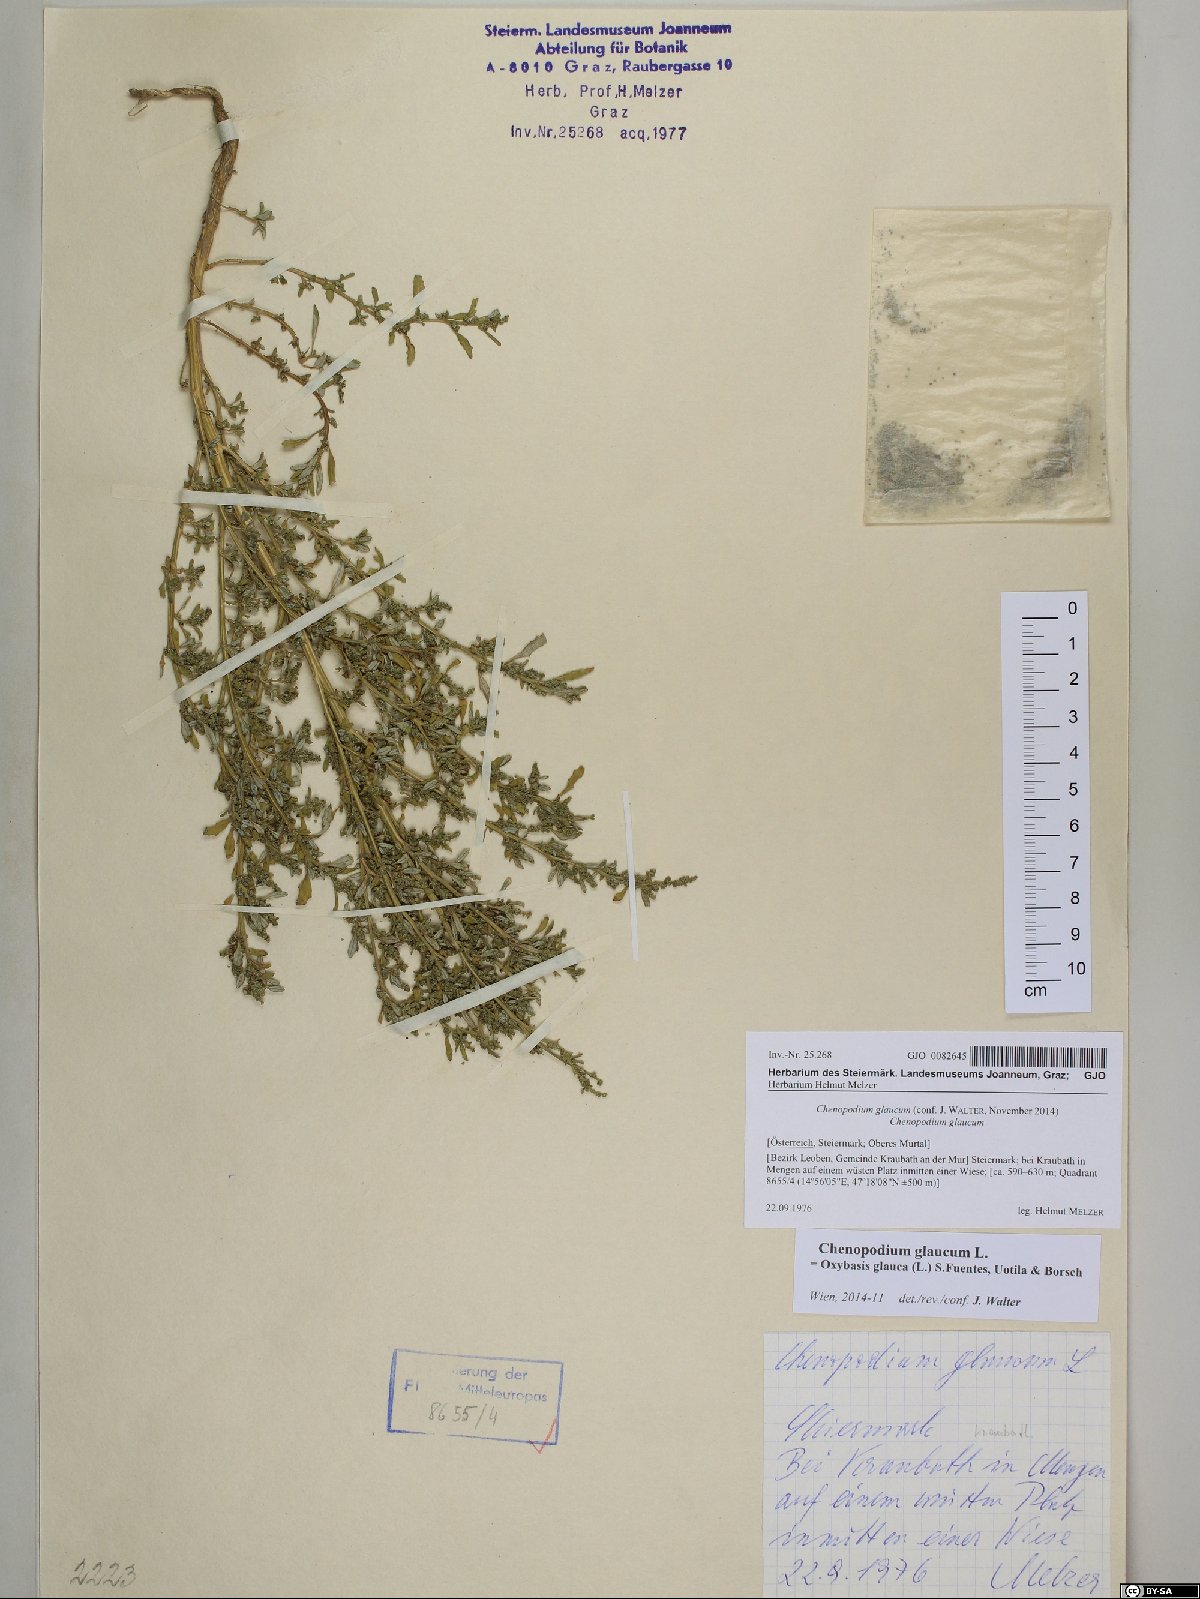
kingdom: Plantae
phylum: Tracheophyta
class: Magnoliopsida
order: Caryophyllales
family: Amaranthaceae
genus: Oxybasis
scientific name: Oxybasis glauca
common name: Glaucous goosefoot
